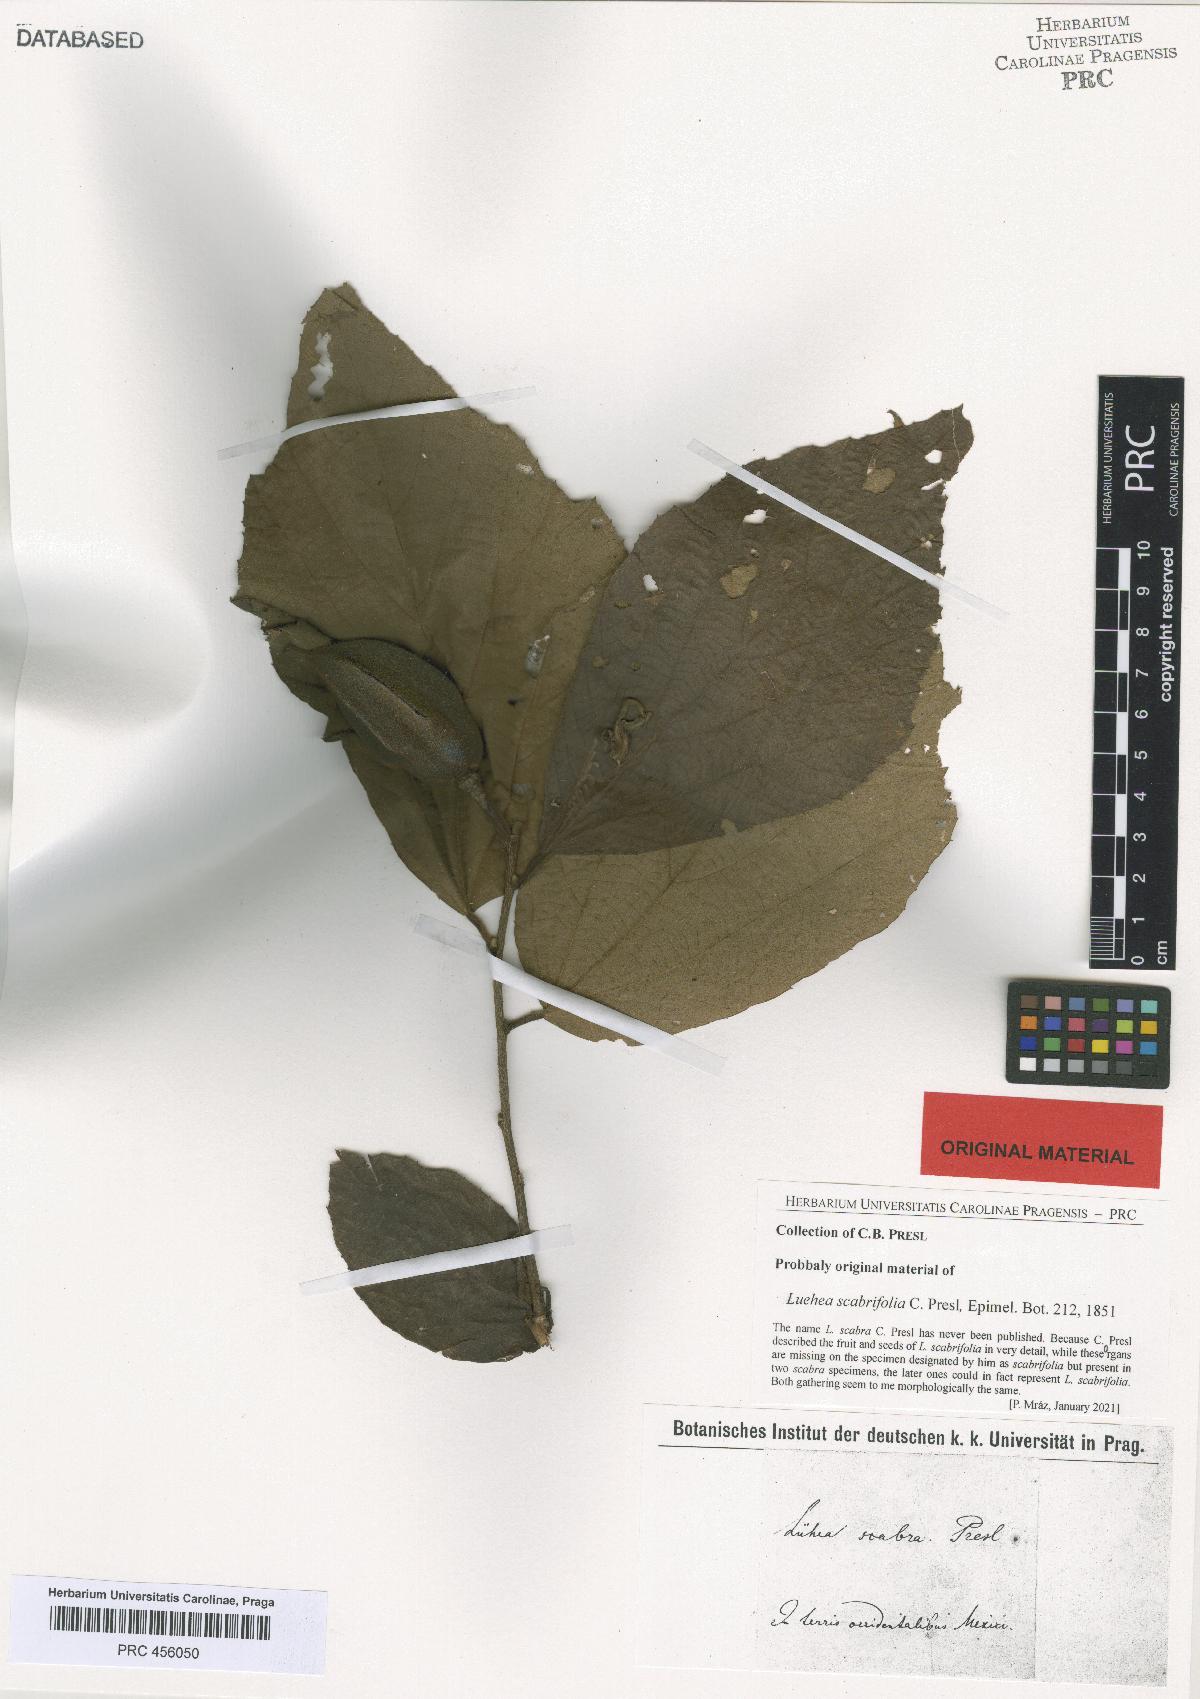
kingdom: Plantae
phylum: Tracheophyta
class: Magnoliopsida
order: Malvales
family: Malvaceae
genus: Luehea
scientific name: Luehea
